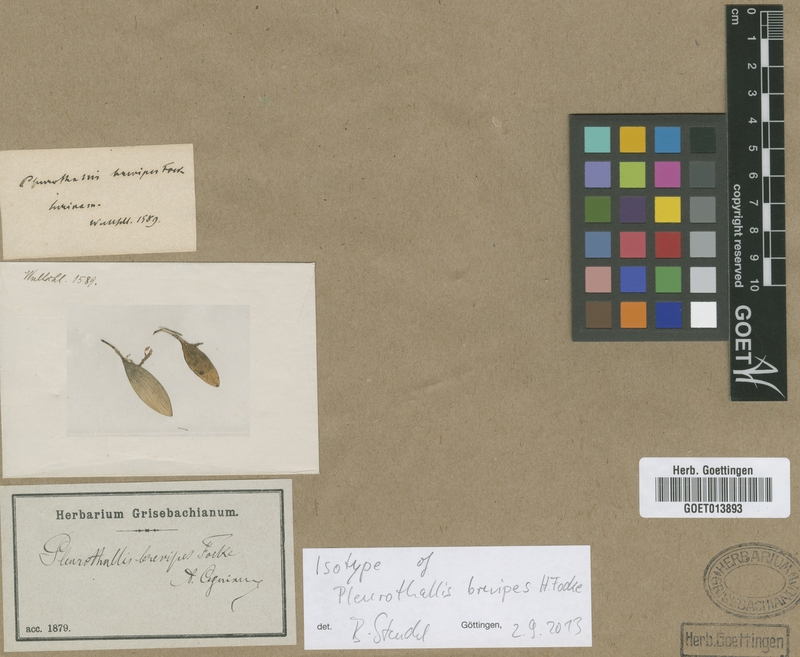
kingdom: Plantae
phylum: Tracheophyta
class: Liliopsida
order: Asparagales
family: Orchidaceae
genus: Anathallis
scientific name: Anathallis brevipes
